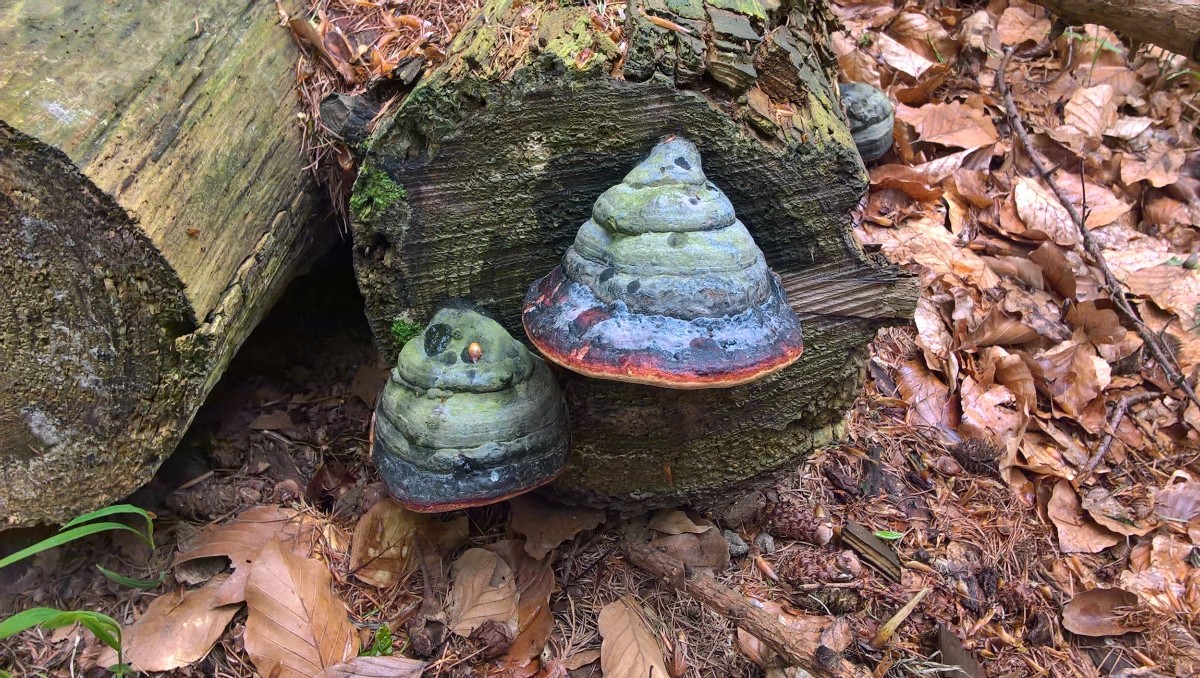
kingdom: Fungi
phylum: Basidiomycota
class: Agaricomycetes
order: Polyporales
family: Fomitopsidaceae
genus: Fomitopsis
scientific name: Fomitopsis pinicola
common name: randbæltet hovporesvamp
